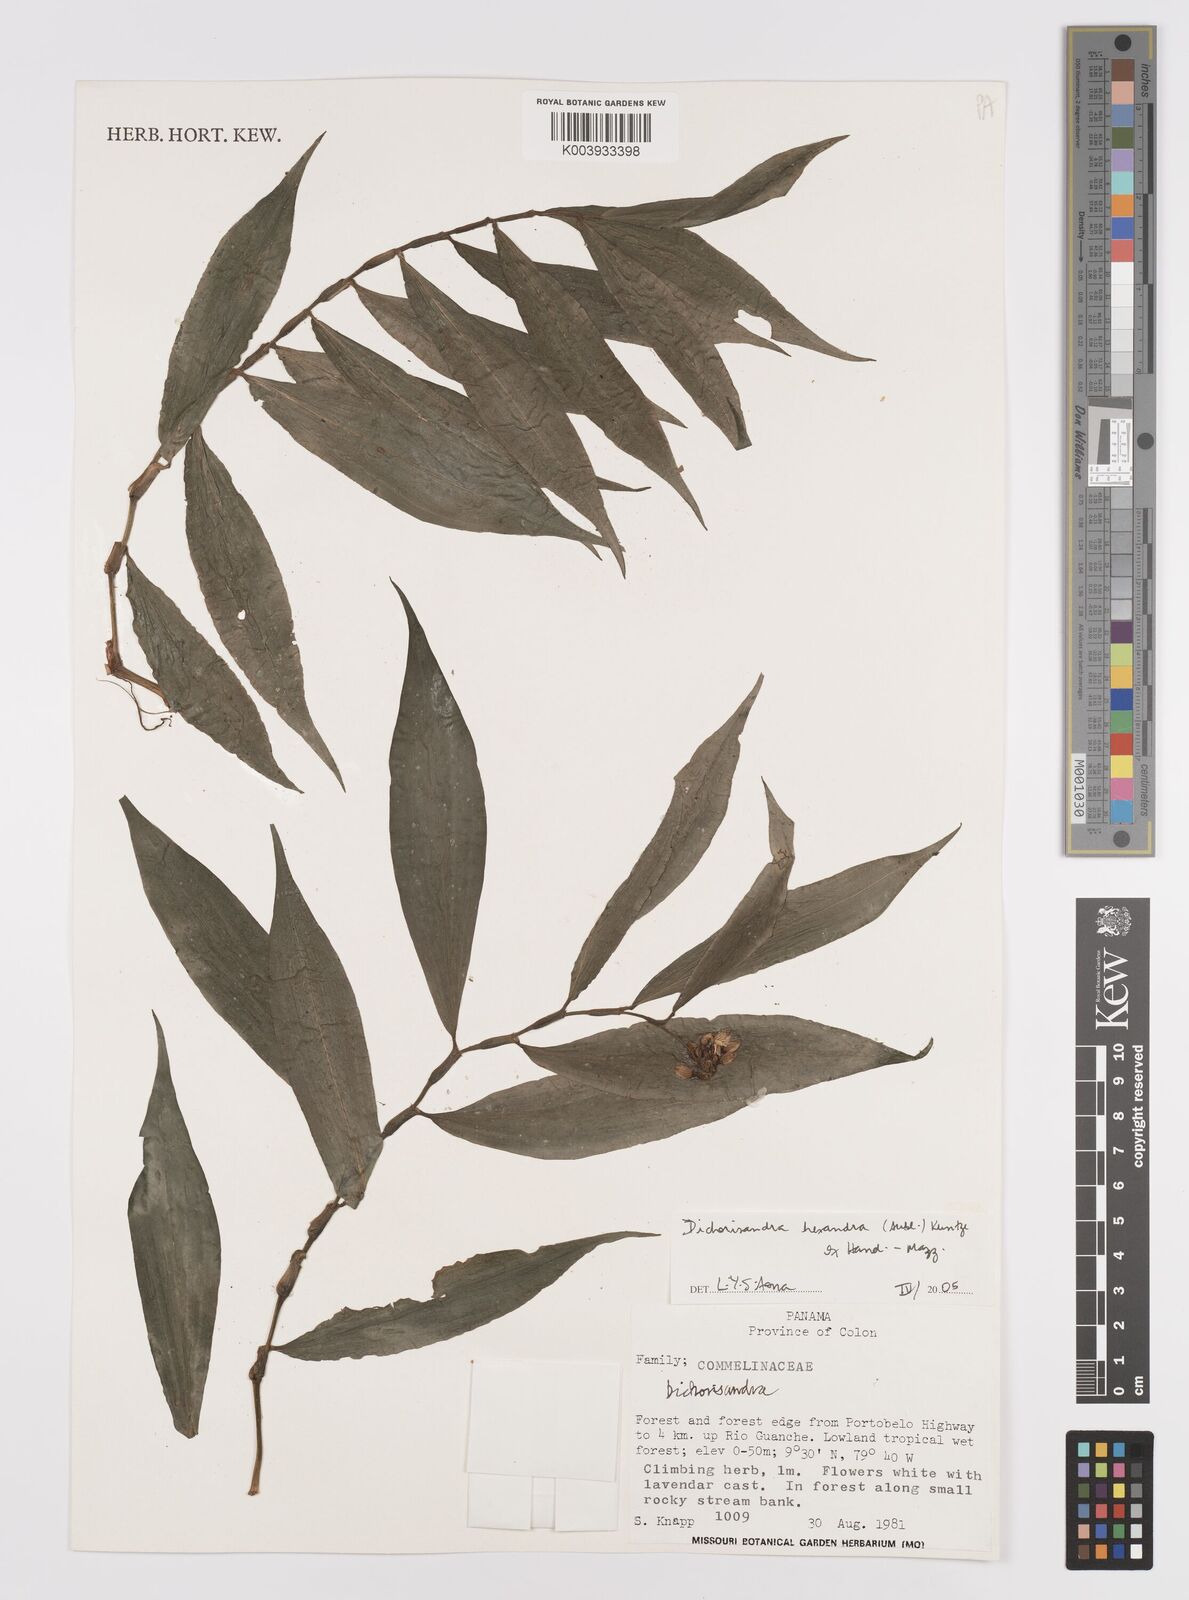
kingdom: Plantae
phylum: Tracheophyta
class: Liliopsida
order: Commelinales
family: Commelinaceae
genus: Dichorisandra
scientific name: Dichorisandra hexandra
